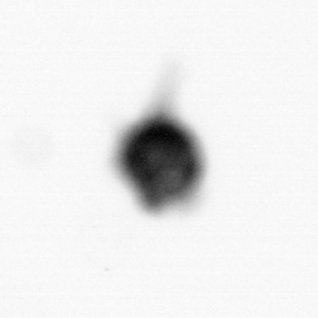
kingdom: Animalia
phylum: Arthropoda
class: Copepoda
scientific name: Copepoda
